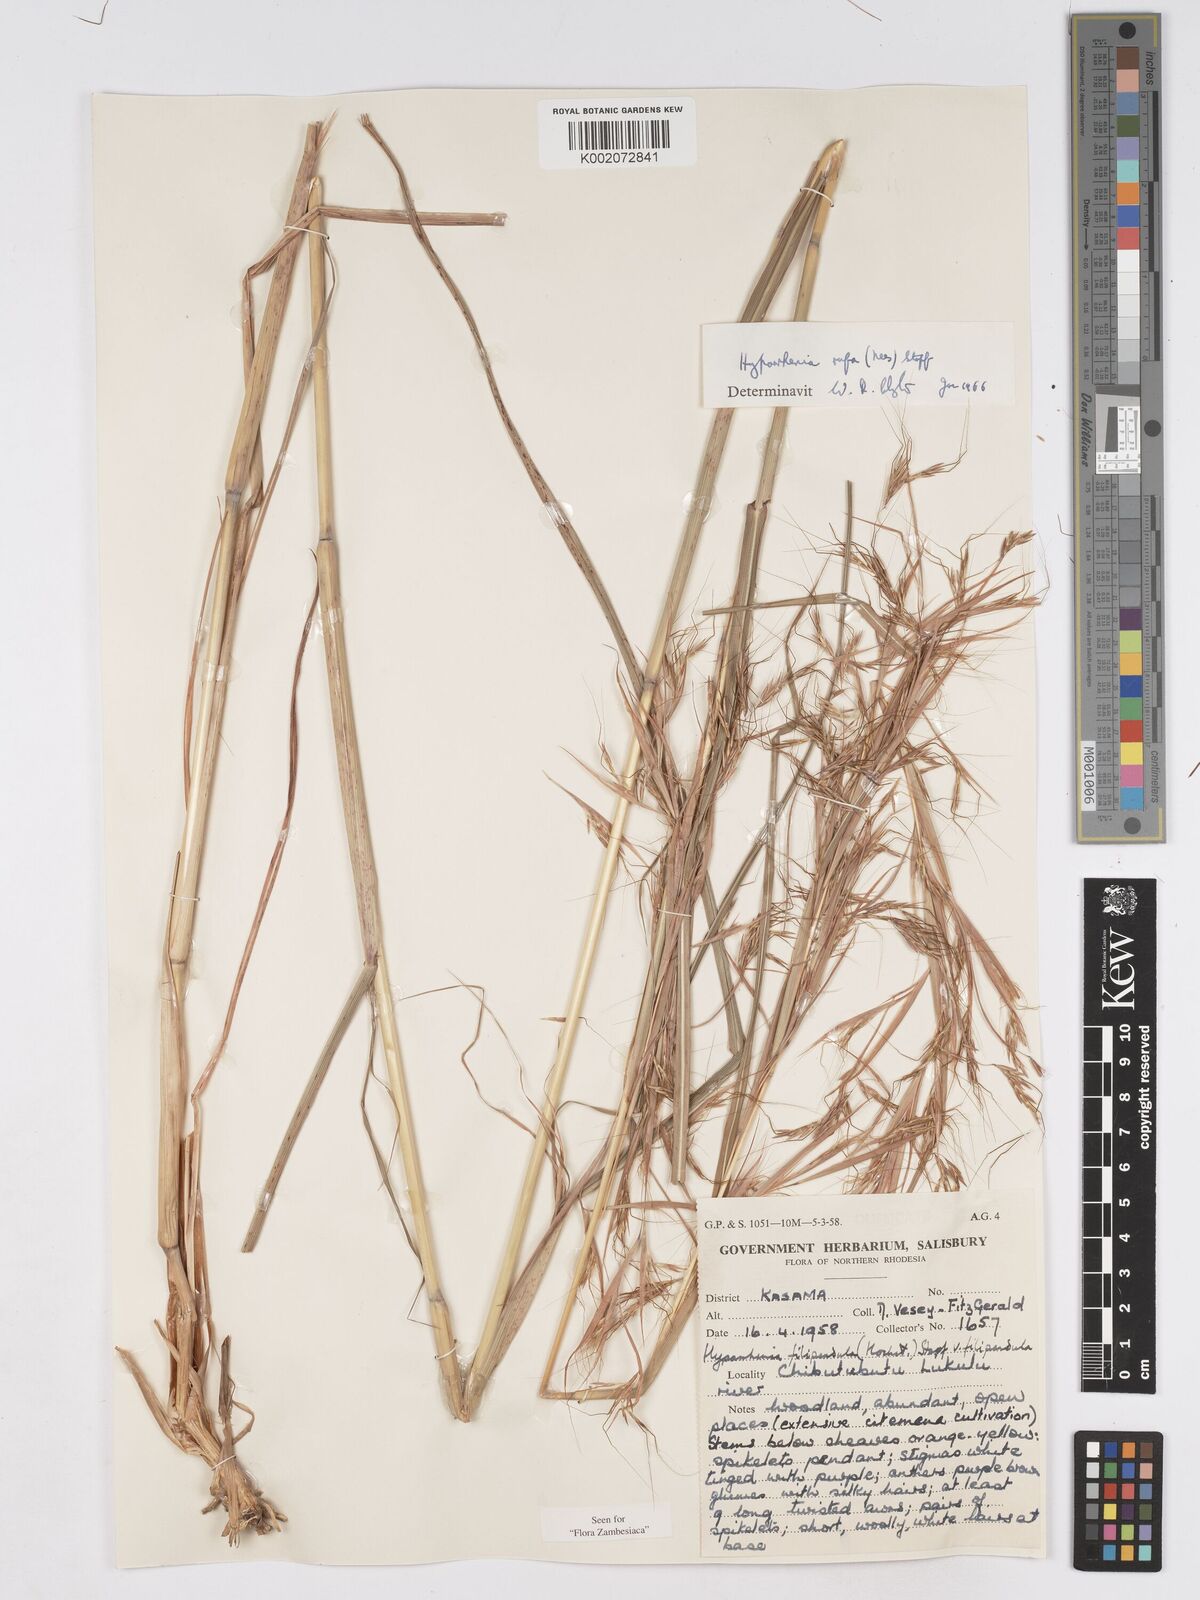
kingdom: Plantae
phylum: Tracheophyta
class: Liliopsida
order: Poales
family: Poaceae
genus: Hyparrhenia
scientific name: Hyparrhenia rufa
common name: Jaraguagrass
